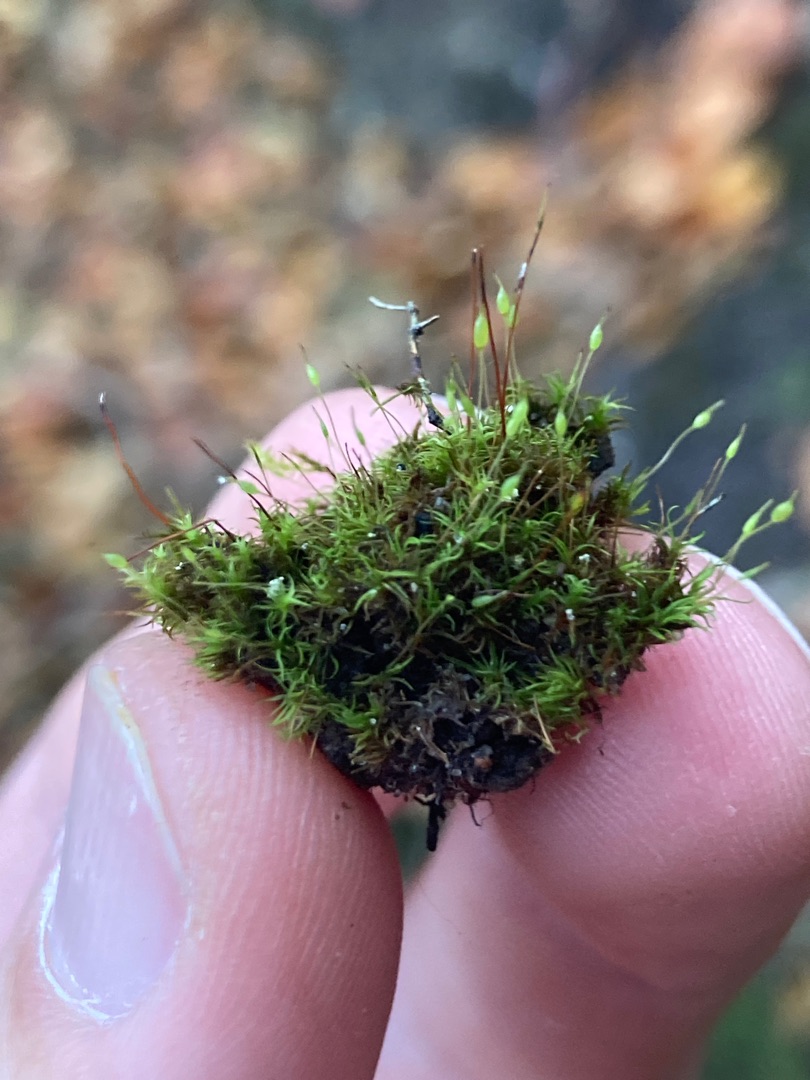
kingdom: Plantae
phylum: Bryophyta
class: Bryopsida
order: Pottiales
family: Pottiaceae
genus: Weissia
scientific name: Weissia
